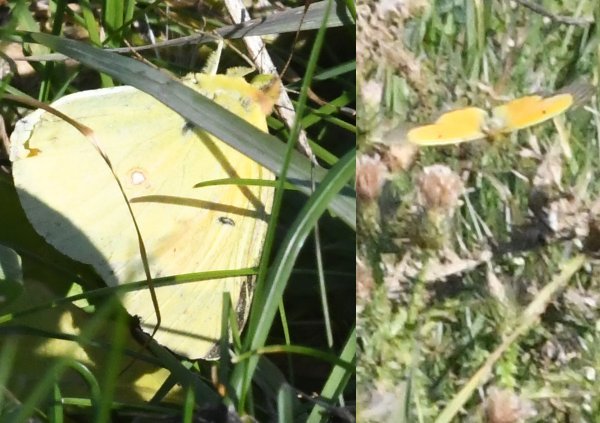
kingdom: Animalia
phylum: Arthropoda
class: Insecta
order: Lepidoptera
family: Pieridae
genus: Colias
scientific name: Colias eurytheme
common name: Orange Sulphur
